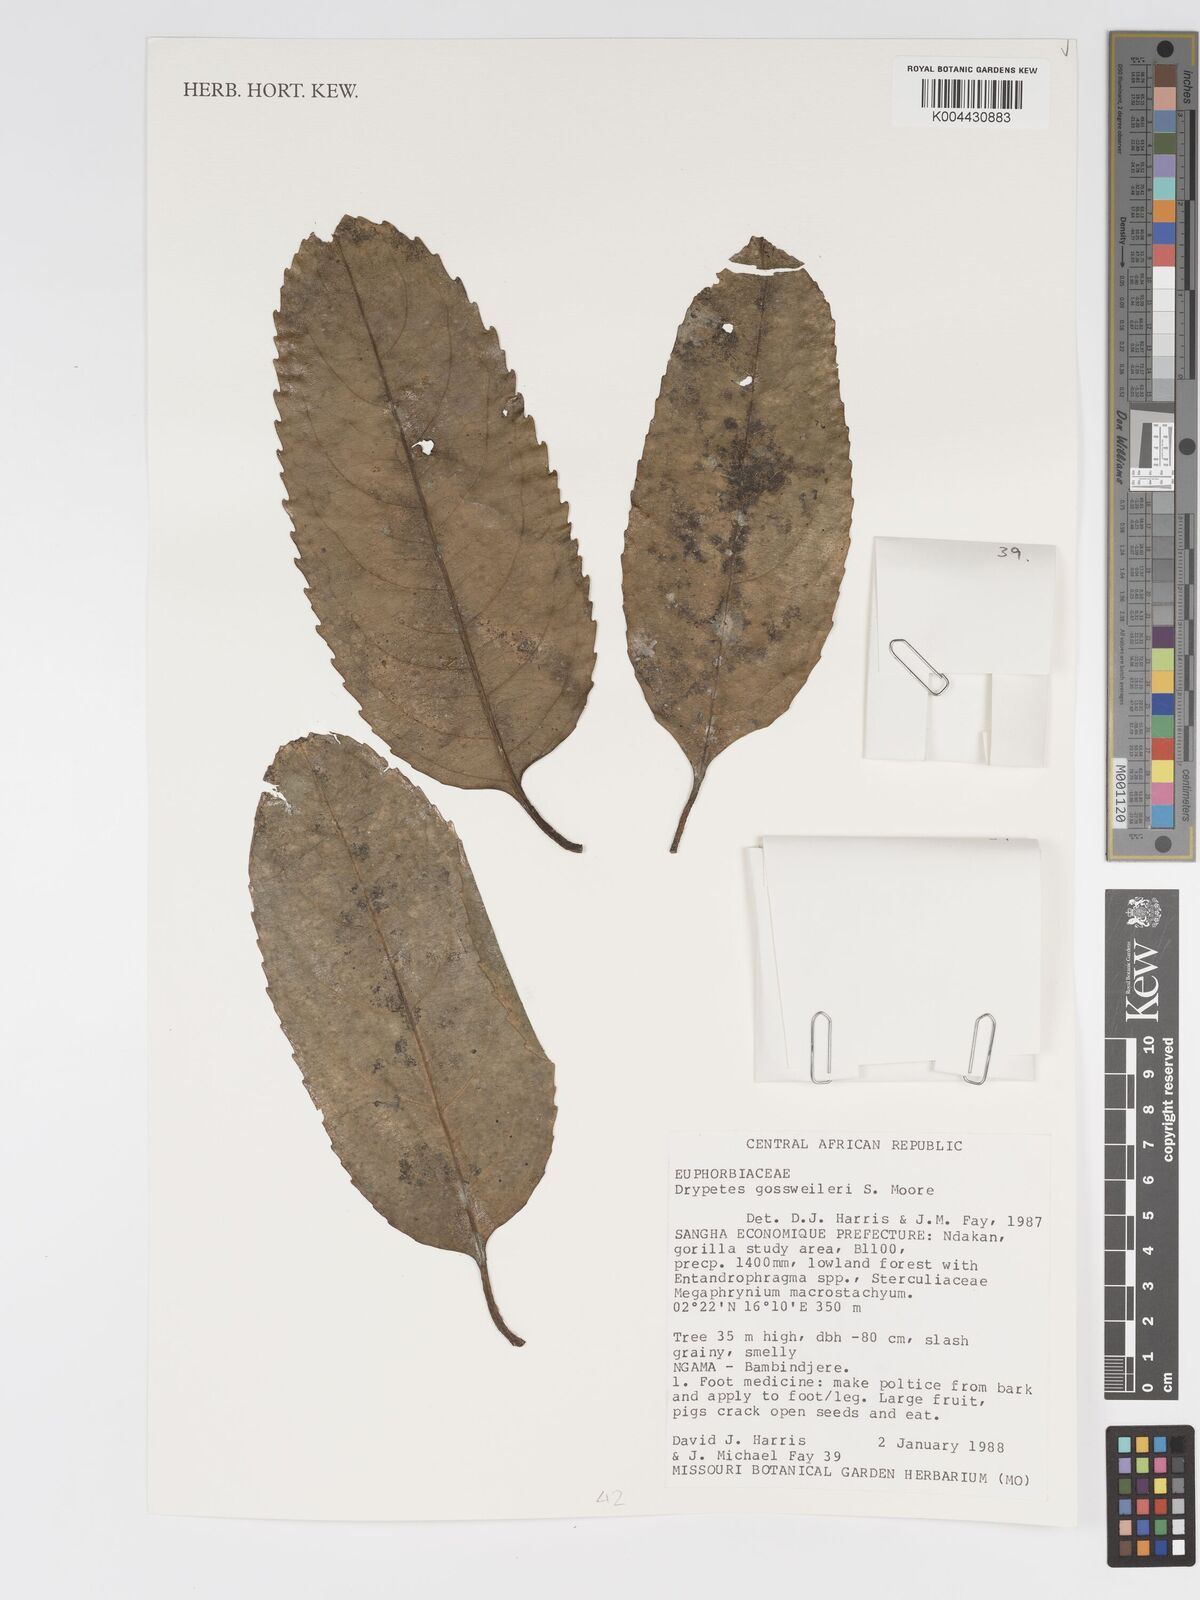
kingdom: Plantae
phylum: Tracheophyta
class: Magnoliopsida
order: Malpighiales
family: Putranjivaceae
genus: Drypetes
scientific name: Drypetes gossweileri
